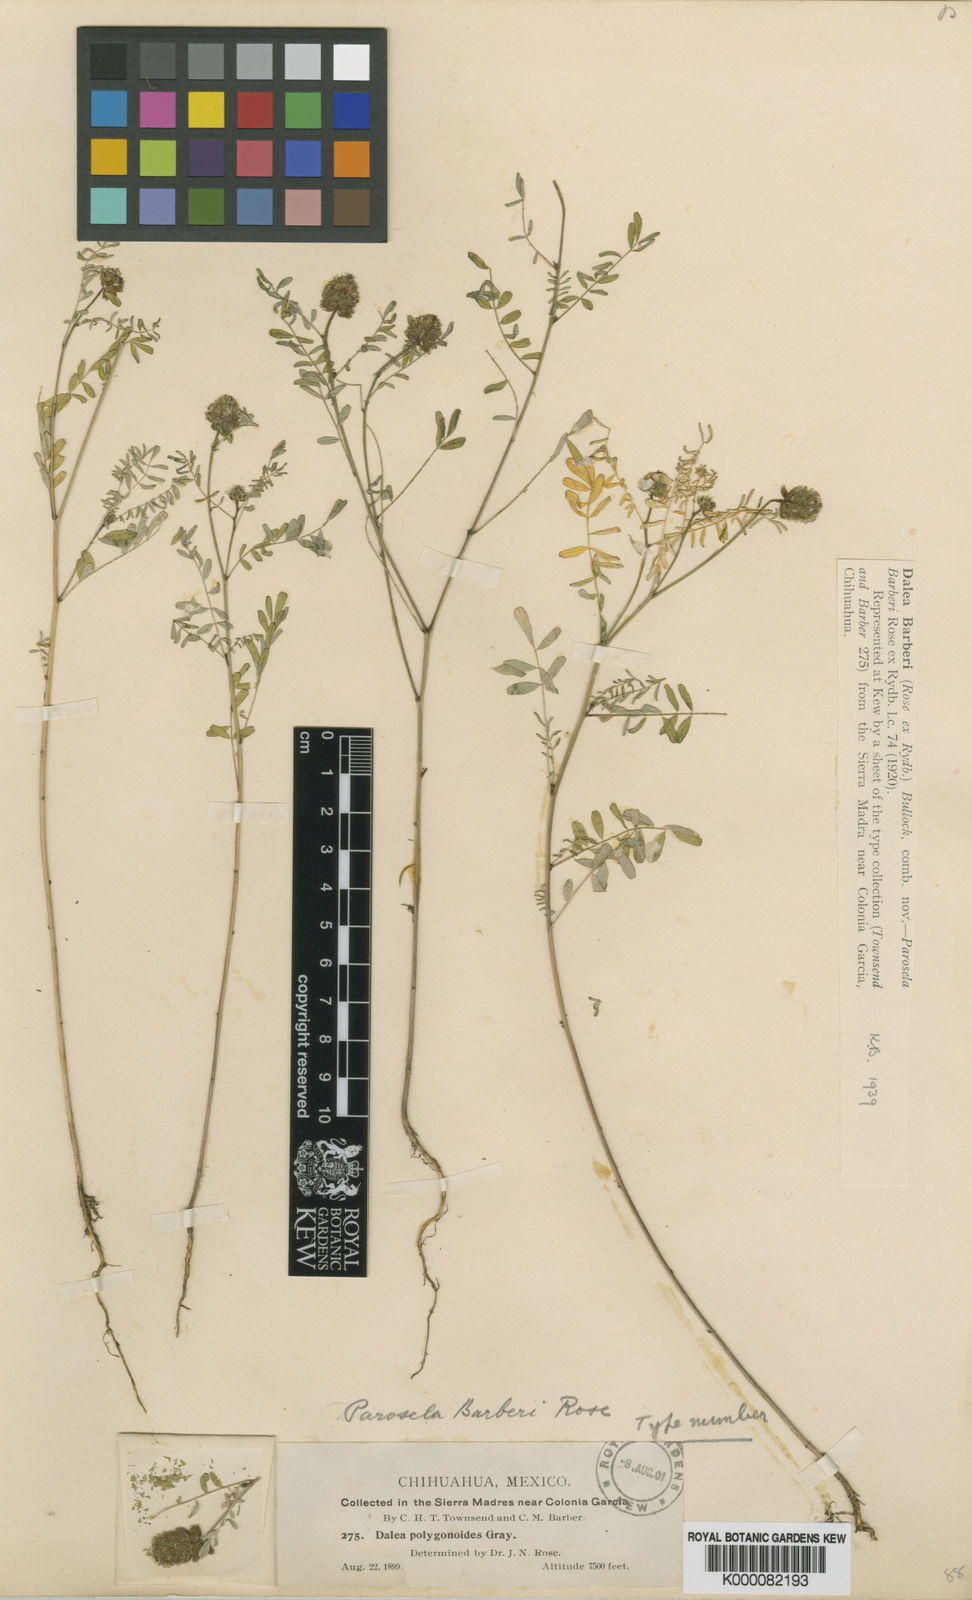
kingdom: Plantae
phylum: Tracheophyta
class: Magnoliopsida
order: Fabales
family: Fabaceae
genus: Dalea
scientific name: Dalea urceolata
